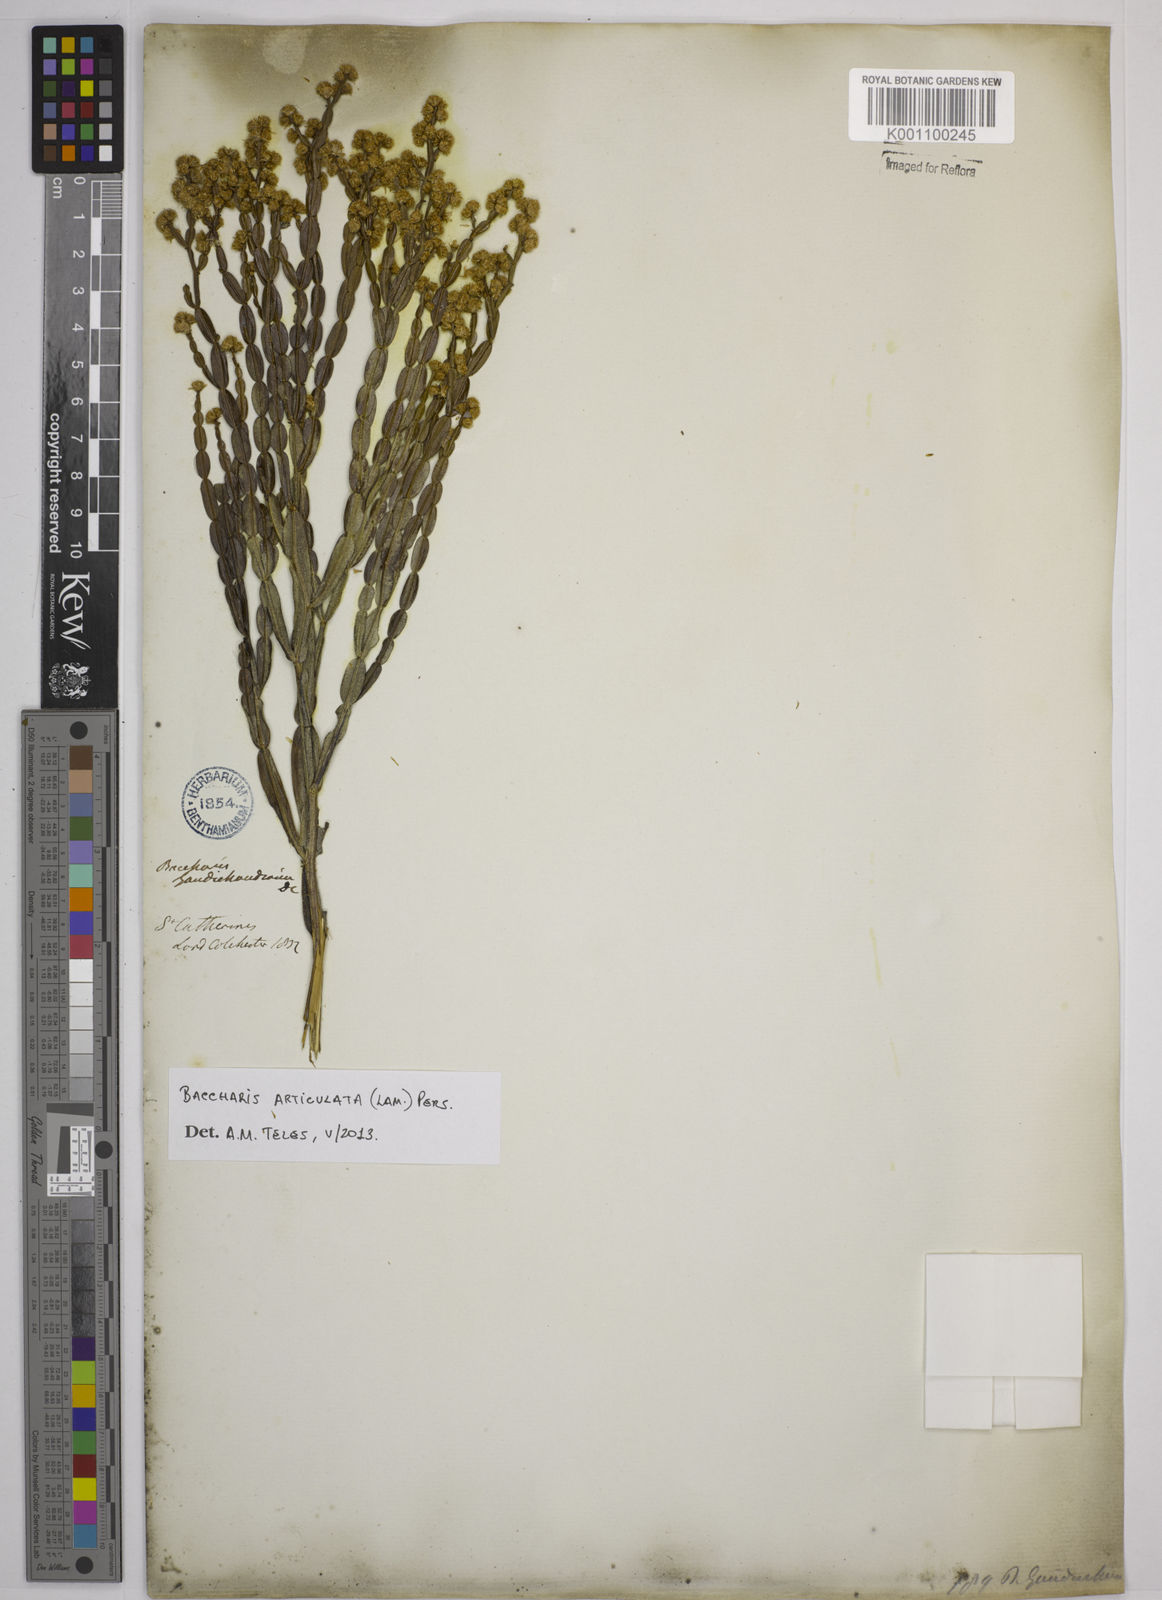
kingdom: Plantae
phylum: Tracheophyta
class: Magnoliopsida
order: Asterales
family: Asteraceae
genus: Baccharis
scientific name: Baccharis
